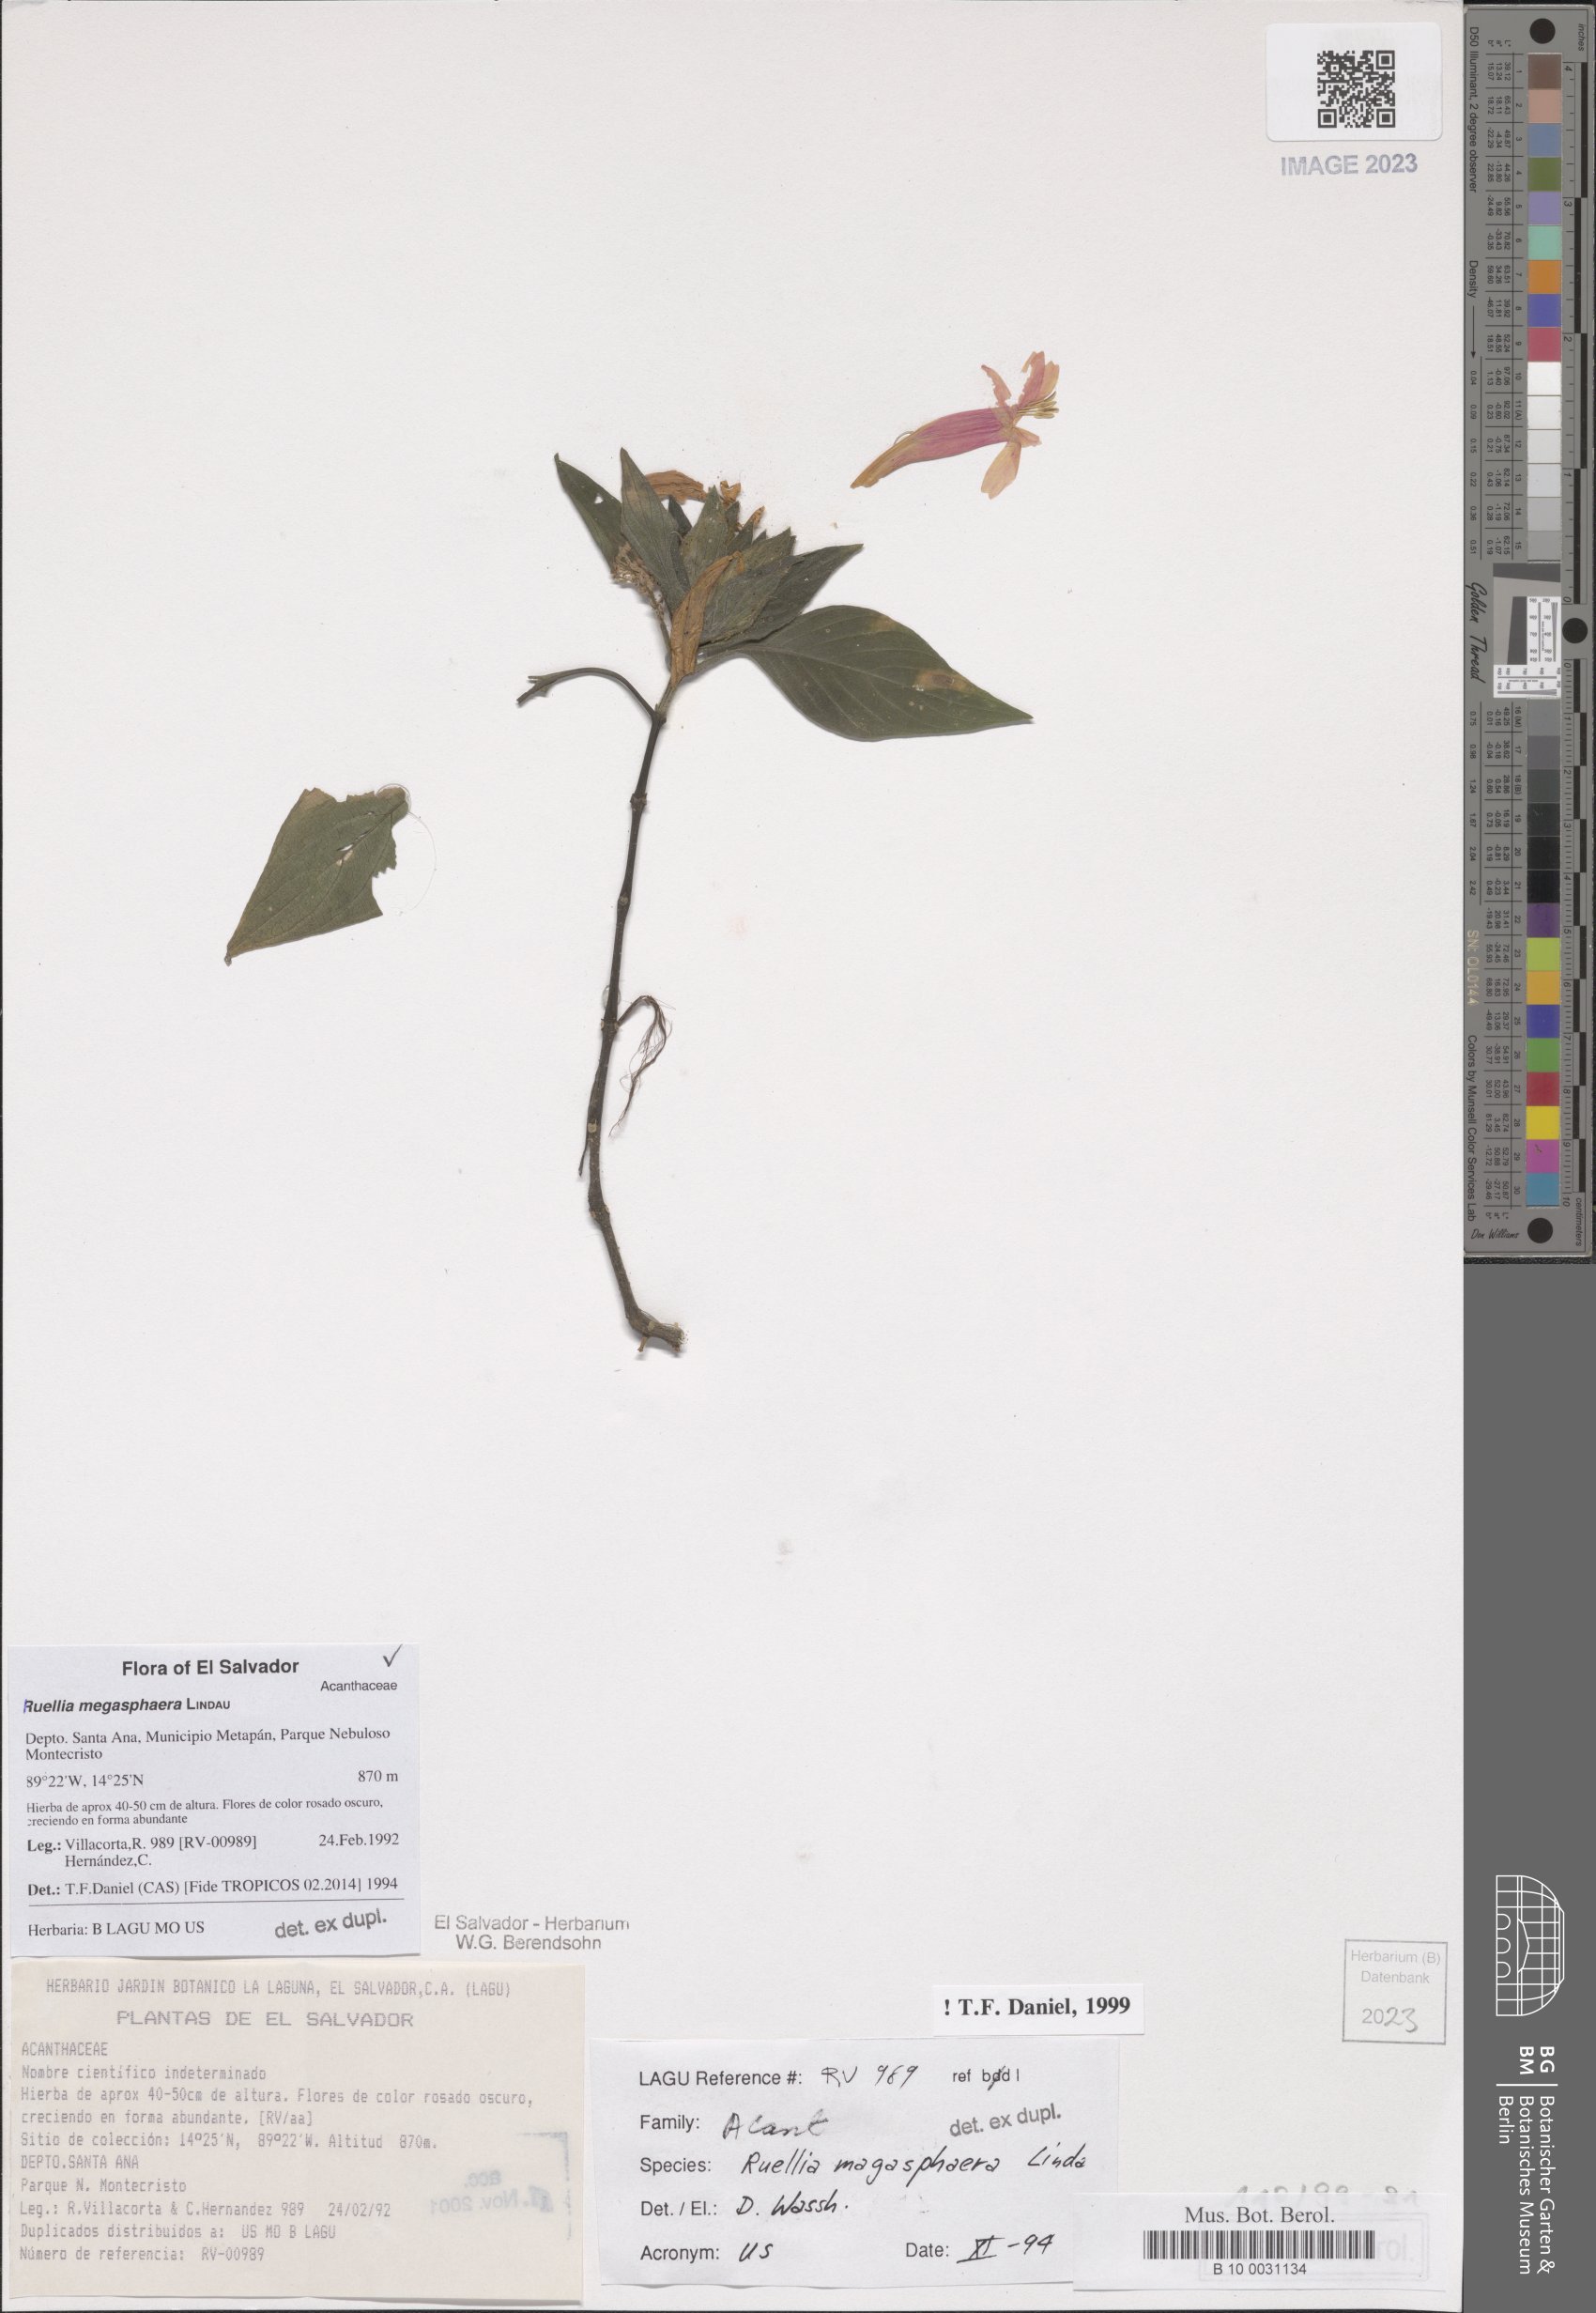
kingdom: Plantae
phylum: Tracheophyta
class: Magnoliopsida
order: Lamiales
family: Acanthaceae
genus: Ruellia
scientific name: Ruellia megasphaera
